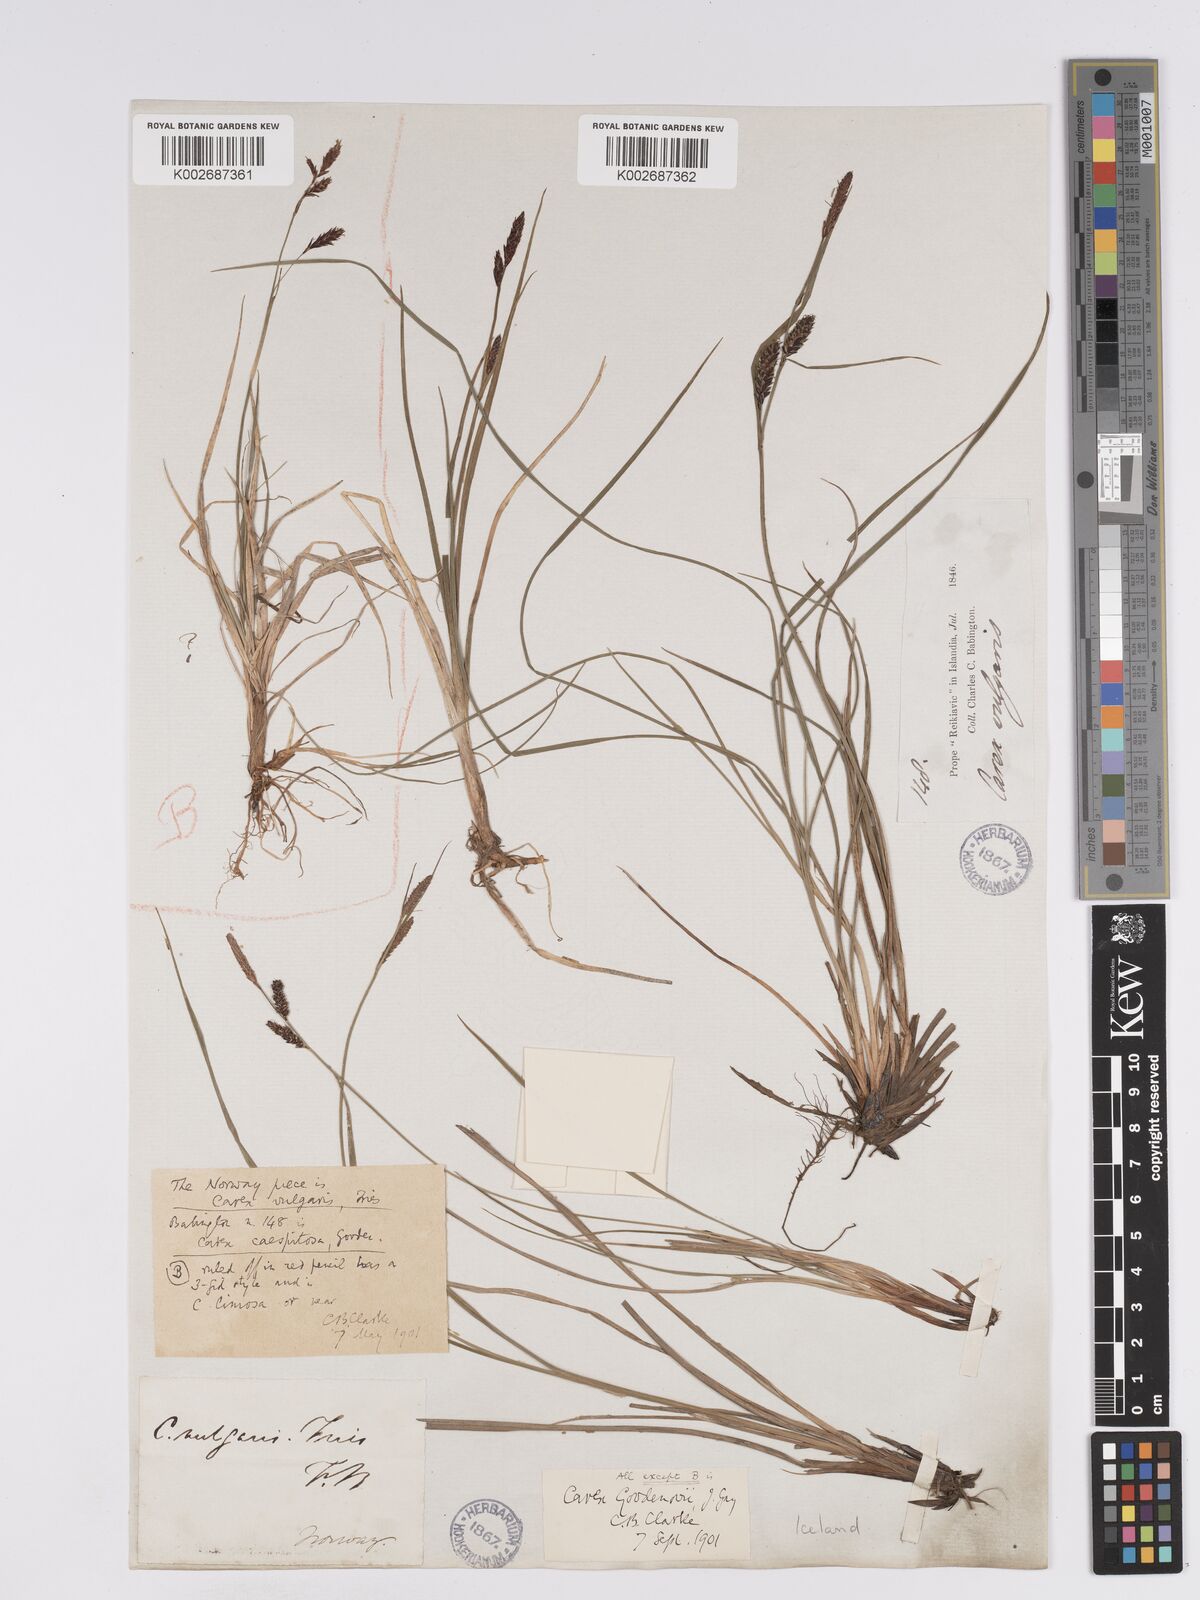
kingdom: Plantae
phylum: Tracheophyta
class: Liliopsida
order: Poales
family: Cyperaceae
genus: Carex
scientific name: Carex nigra
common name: Common sedge
